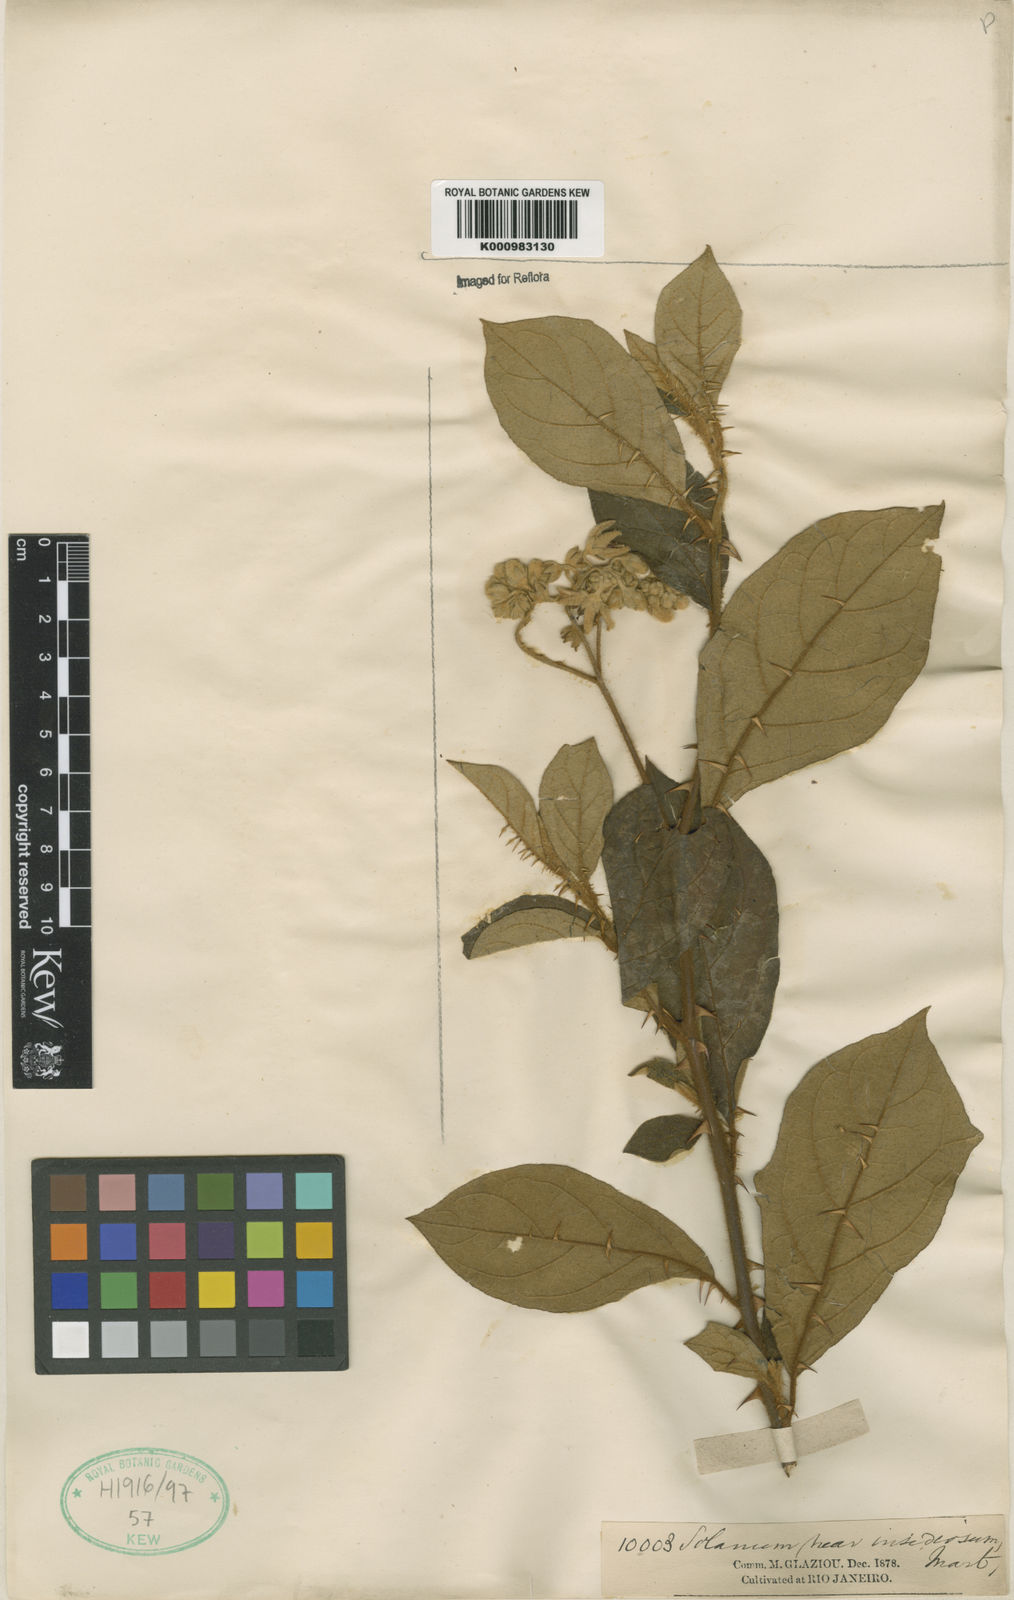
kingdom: Plantae
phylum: Tracheophyta
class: Magnoliopsida
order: Solanales
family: Solanaceae
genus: Solanum
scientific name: Solanum insidiosum
